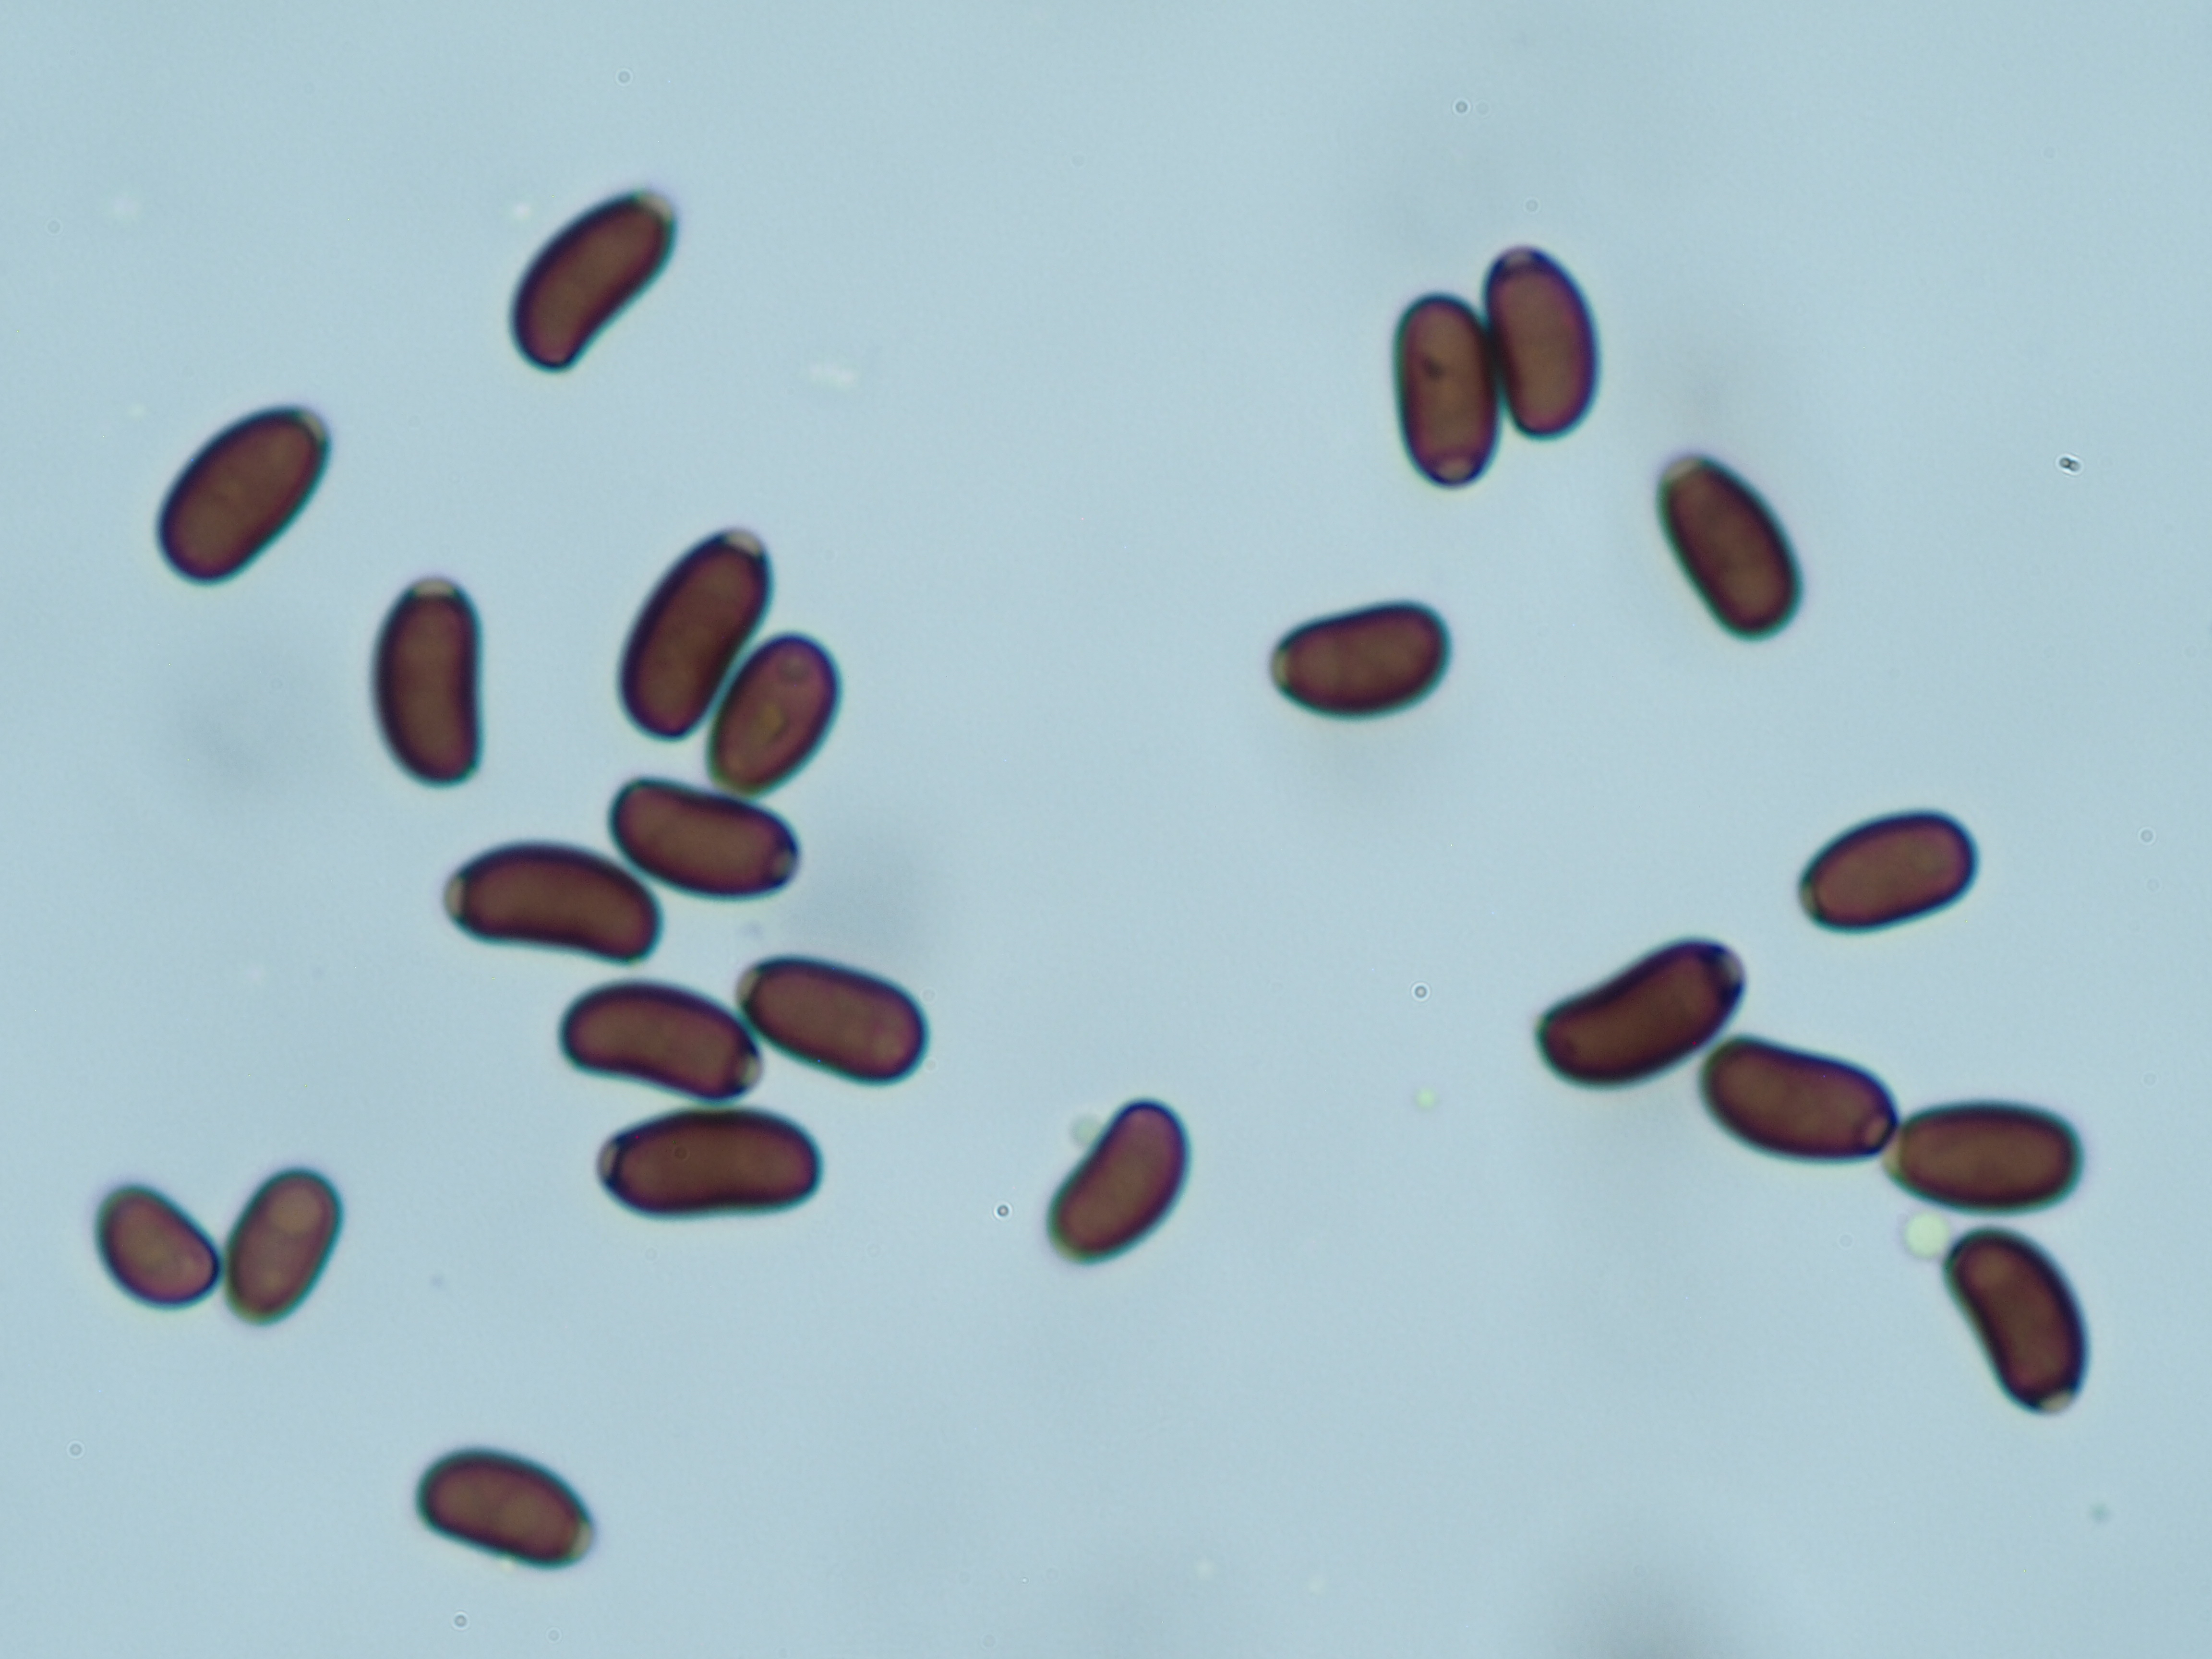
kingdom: Fungi
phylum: Basidiomycota
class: Agaricomycetes
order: Agaricales
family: Psathyrellaceae
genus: Coprinellus
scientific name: Coprinellus domesticus
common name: Firerug inkcap
